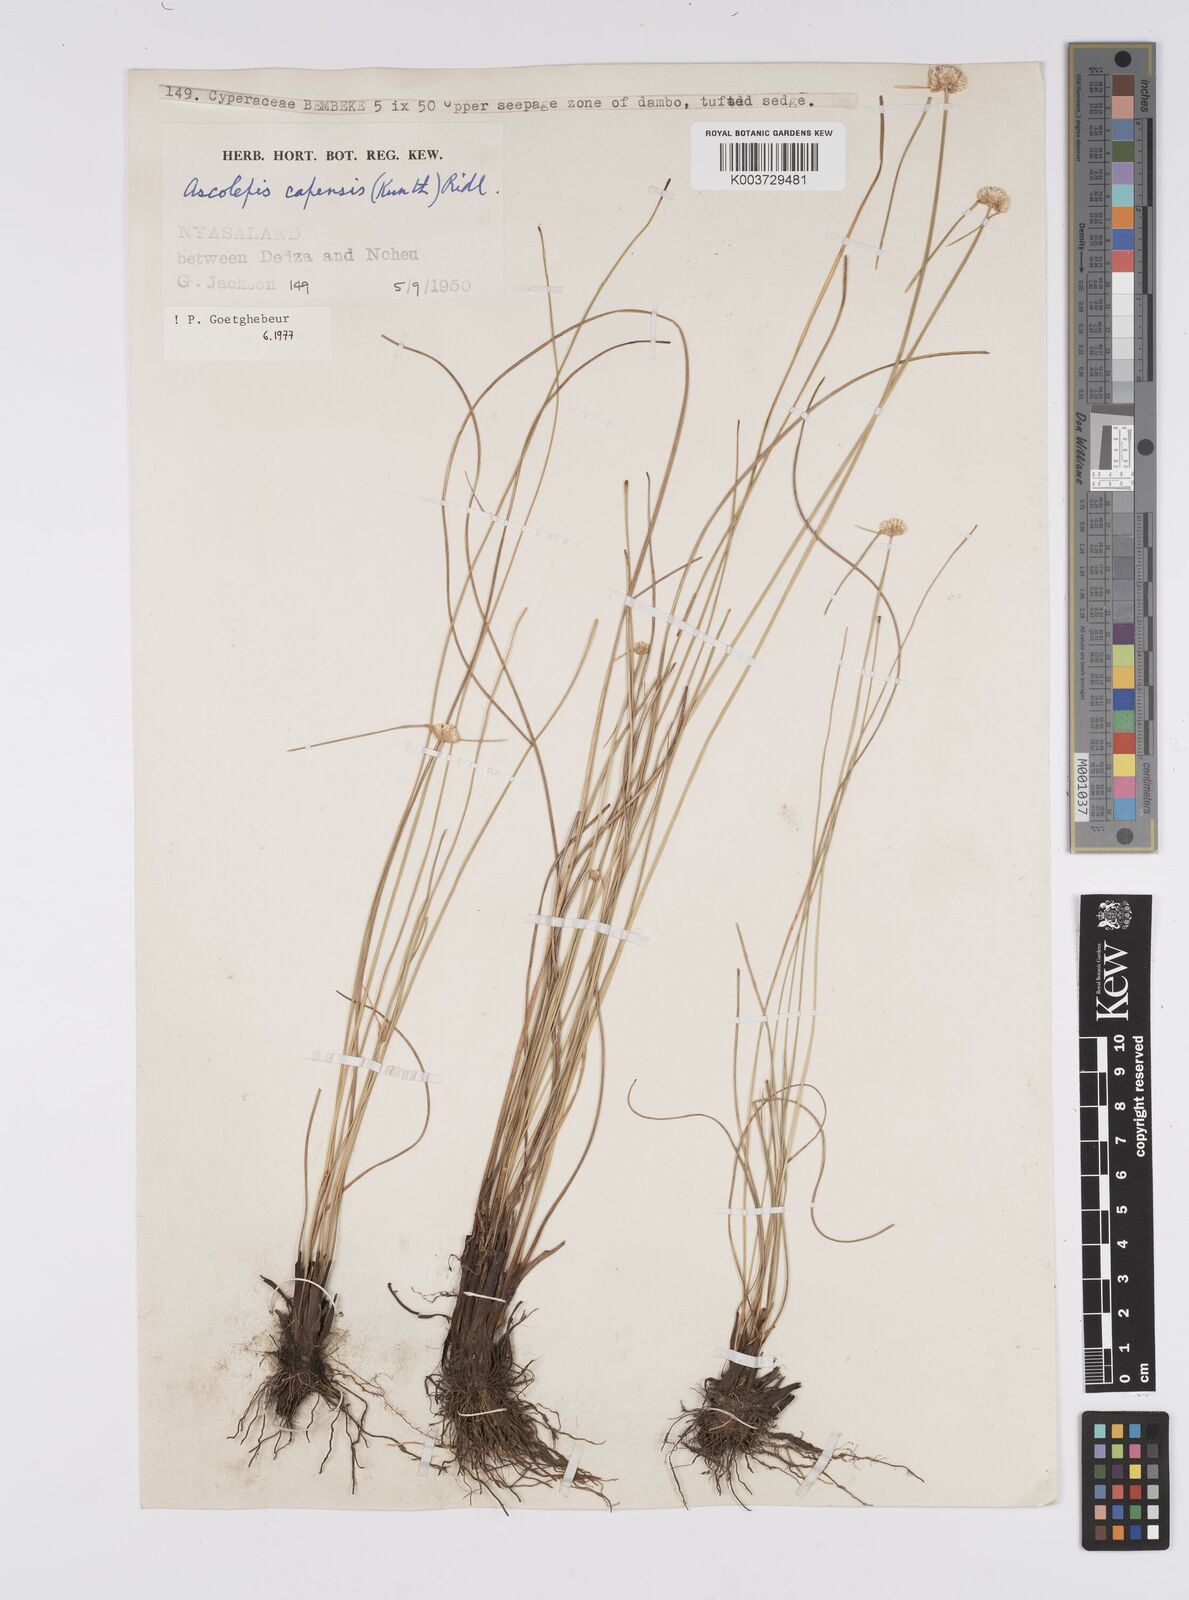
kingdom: Plantae
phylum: Tracheophyta
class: Liliopsida
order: Poales
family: Cyperaceae
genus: Cyperus
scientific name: Cyperus
